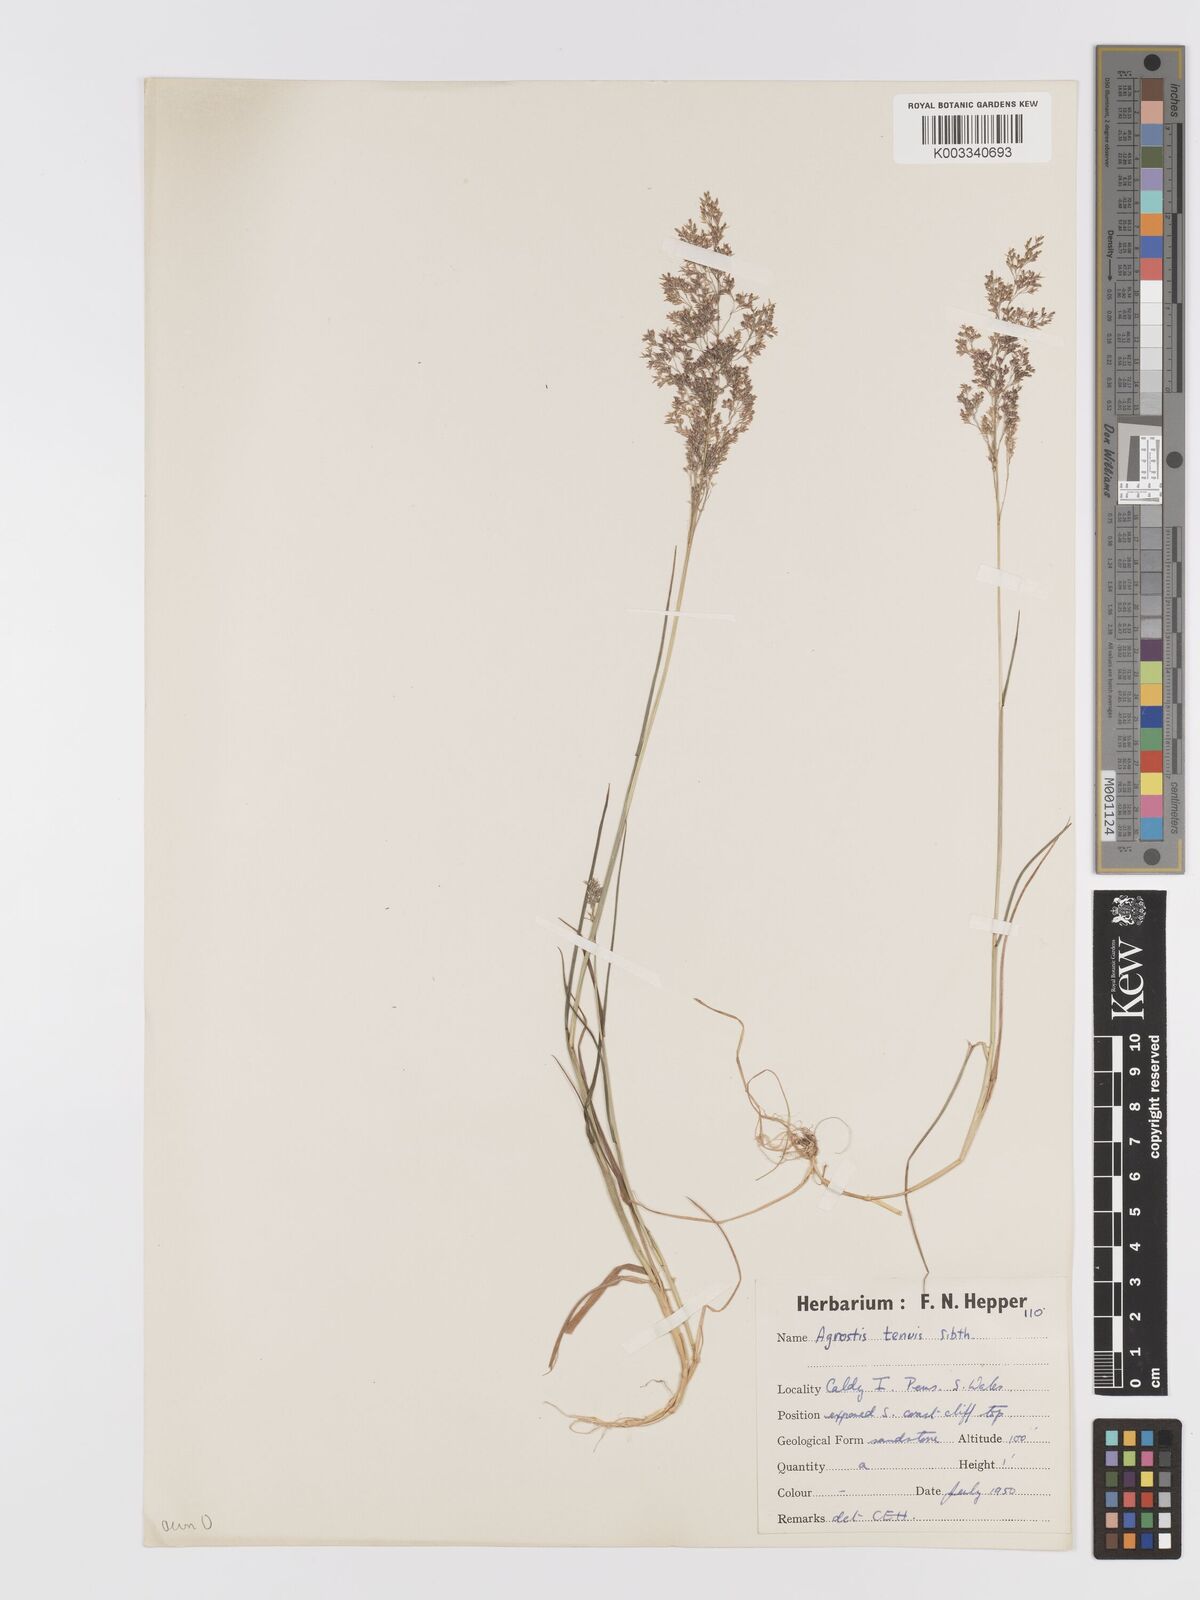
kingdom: Plantae
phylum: Tracheophyta
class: Liliopsida
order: Poales
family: Poaceae
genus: Agrostis
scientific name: Agrostis
